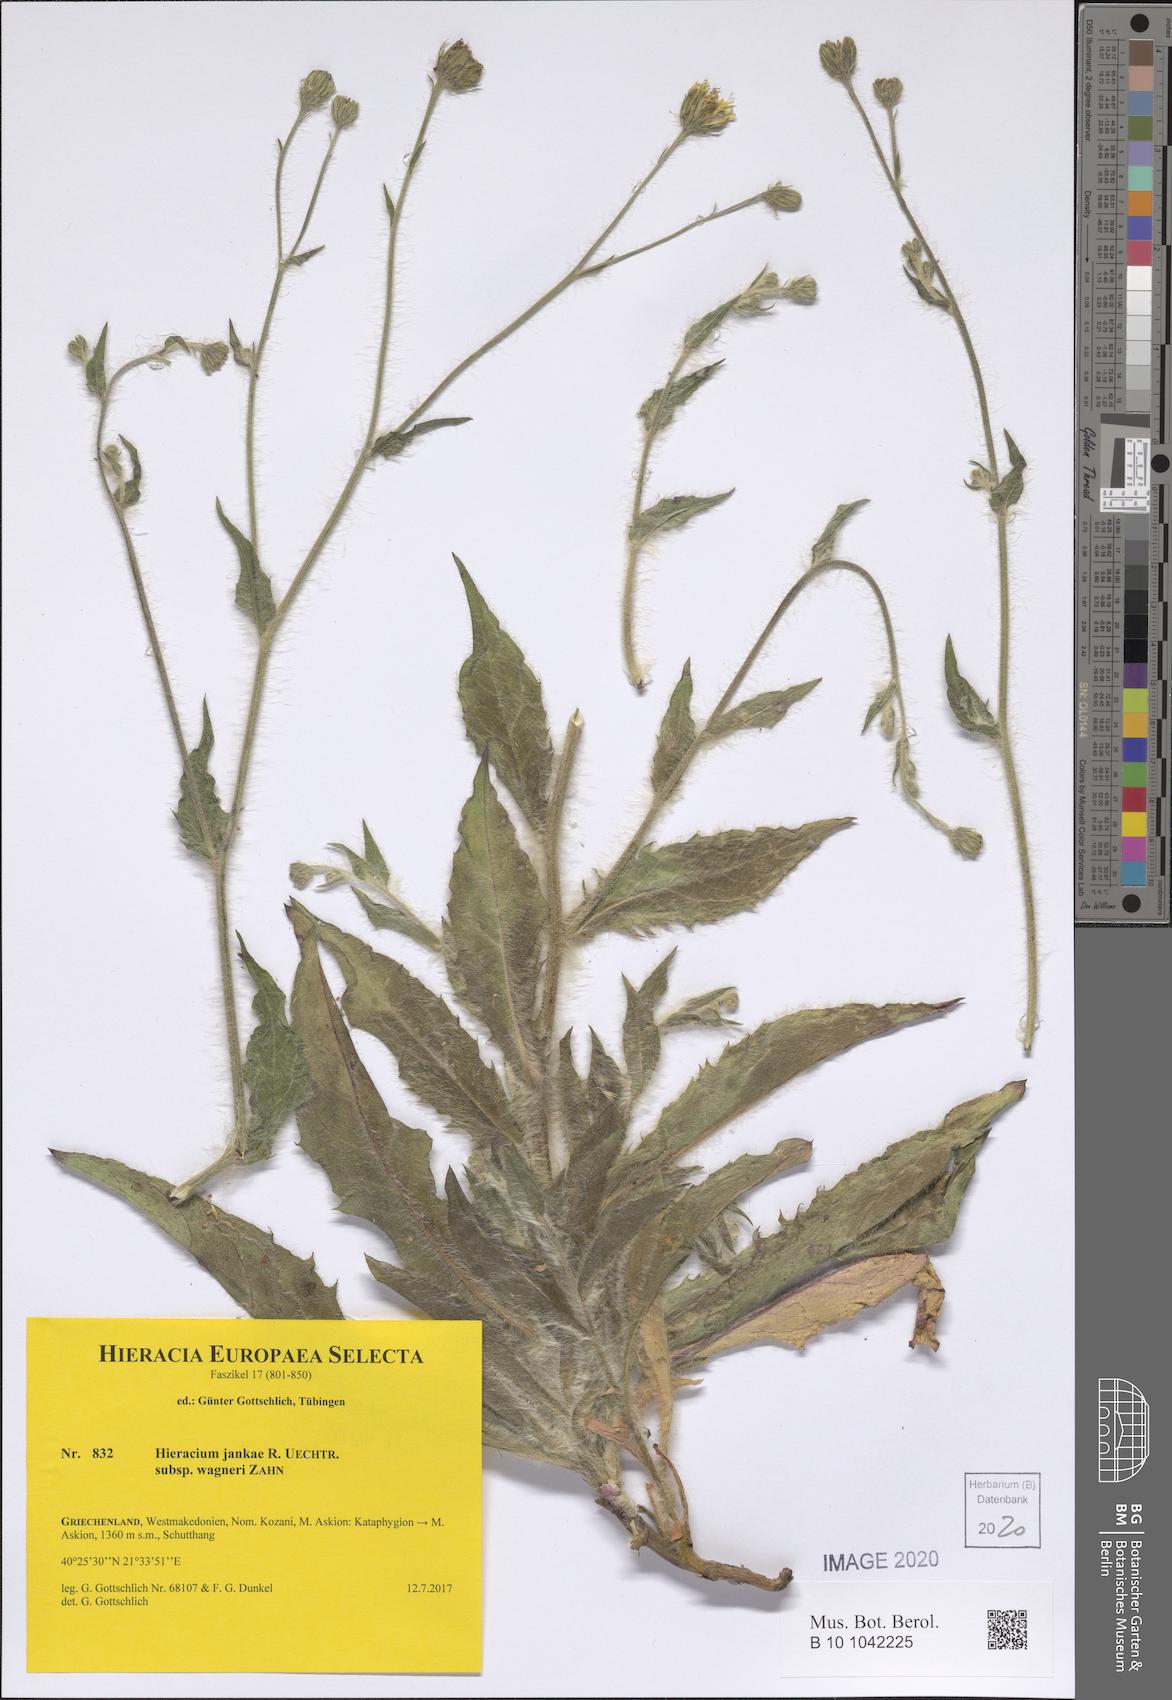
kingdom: Plantae
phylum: Tracheophyta
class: Magnoliopsida
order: Asterales
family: Asteraceae
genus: Hieracium
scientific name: Hieracium jankae
